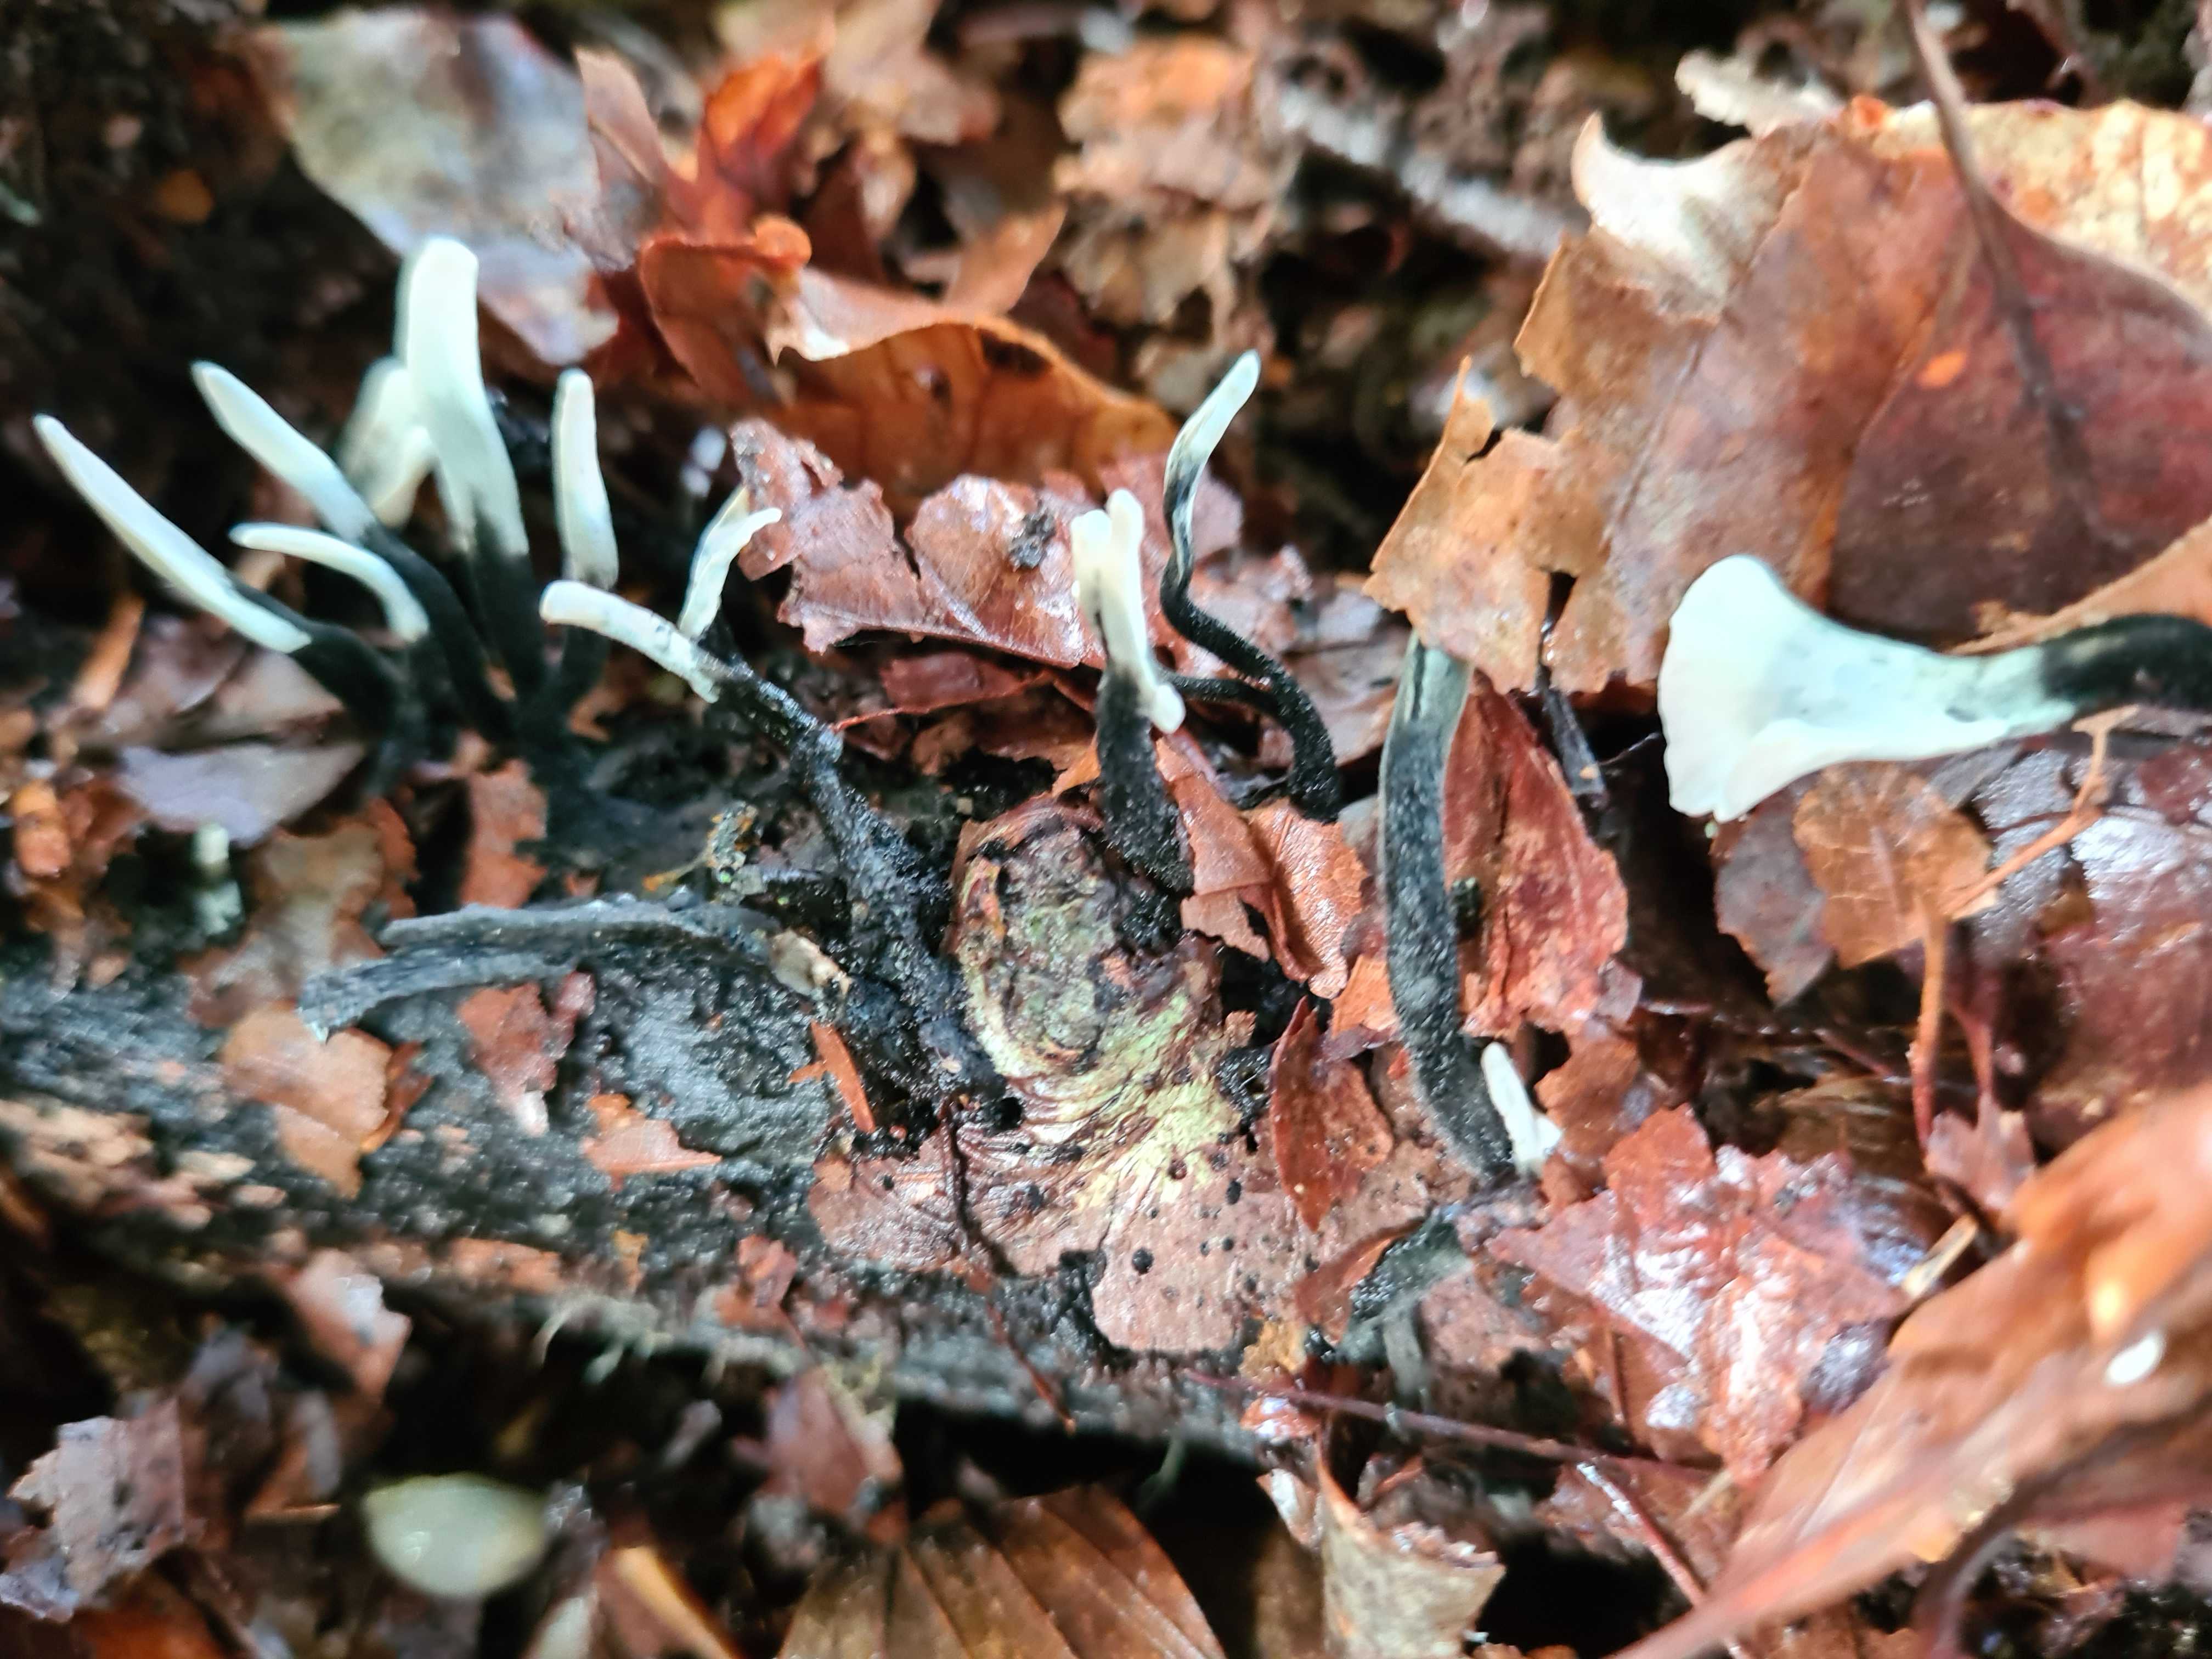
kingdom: Fungi
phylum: Ascomycota
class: Sordariomycetes
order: Xylariales
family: Xylariaceae
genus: Xylaria
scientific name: Xylaria hypoxylon
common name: grenet stødsvamp
